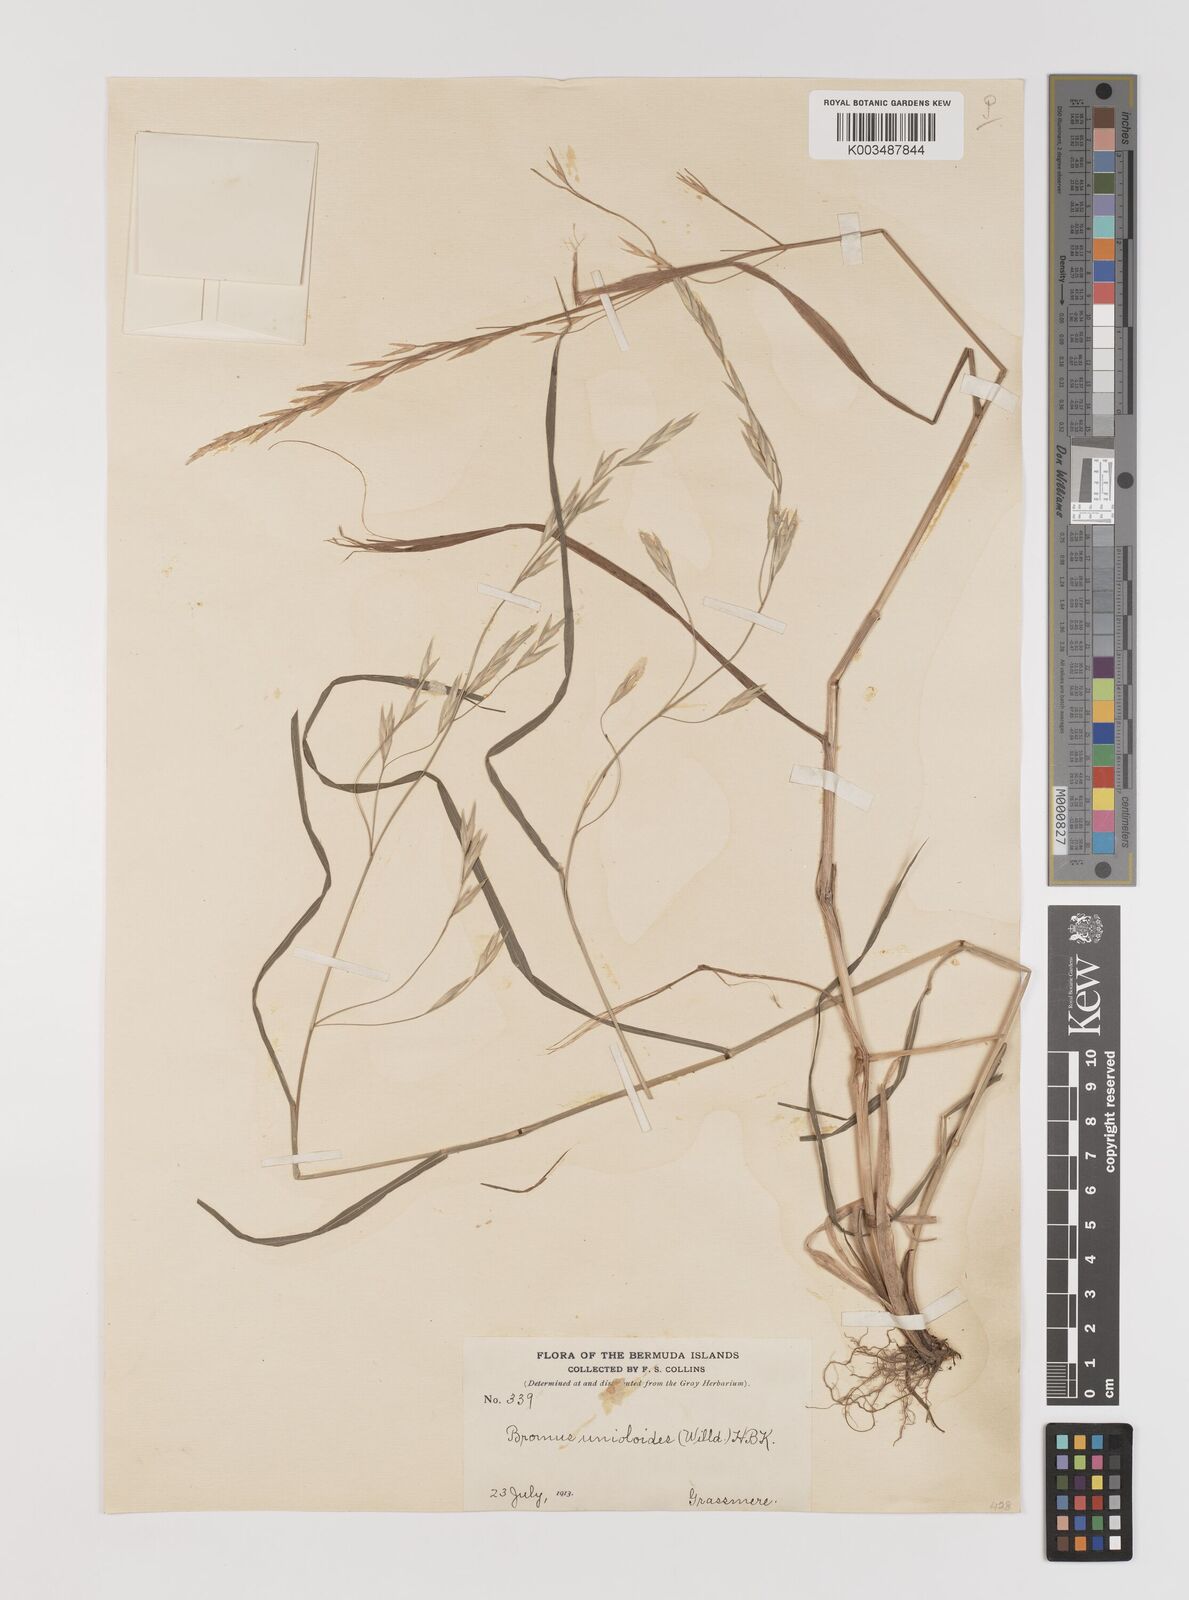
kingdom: Plantae
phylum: Tracheophyta
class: Liliopsida
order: Poales
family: Poaceae
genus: Bromus
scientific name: Bromus catharticus
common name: Rescuegrass
